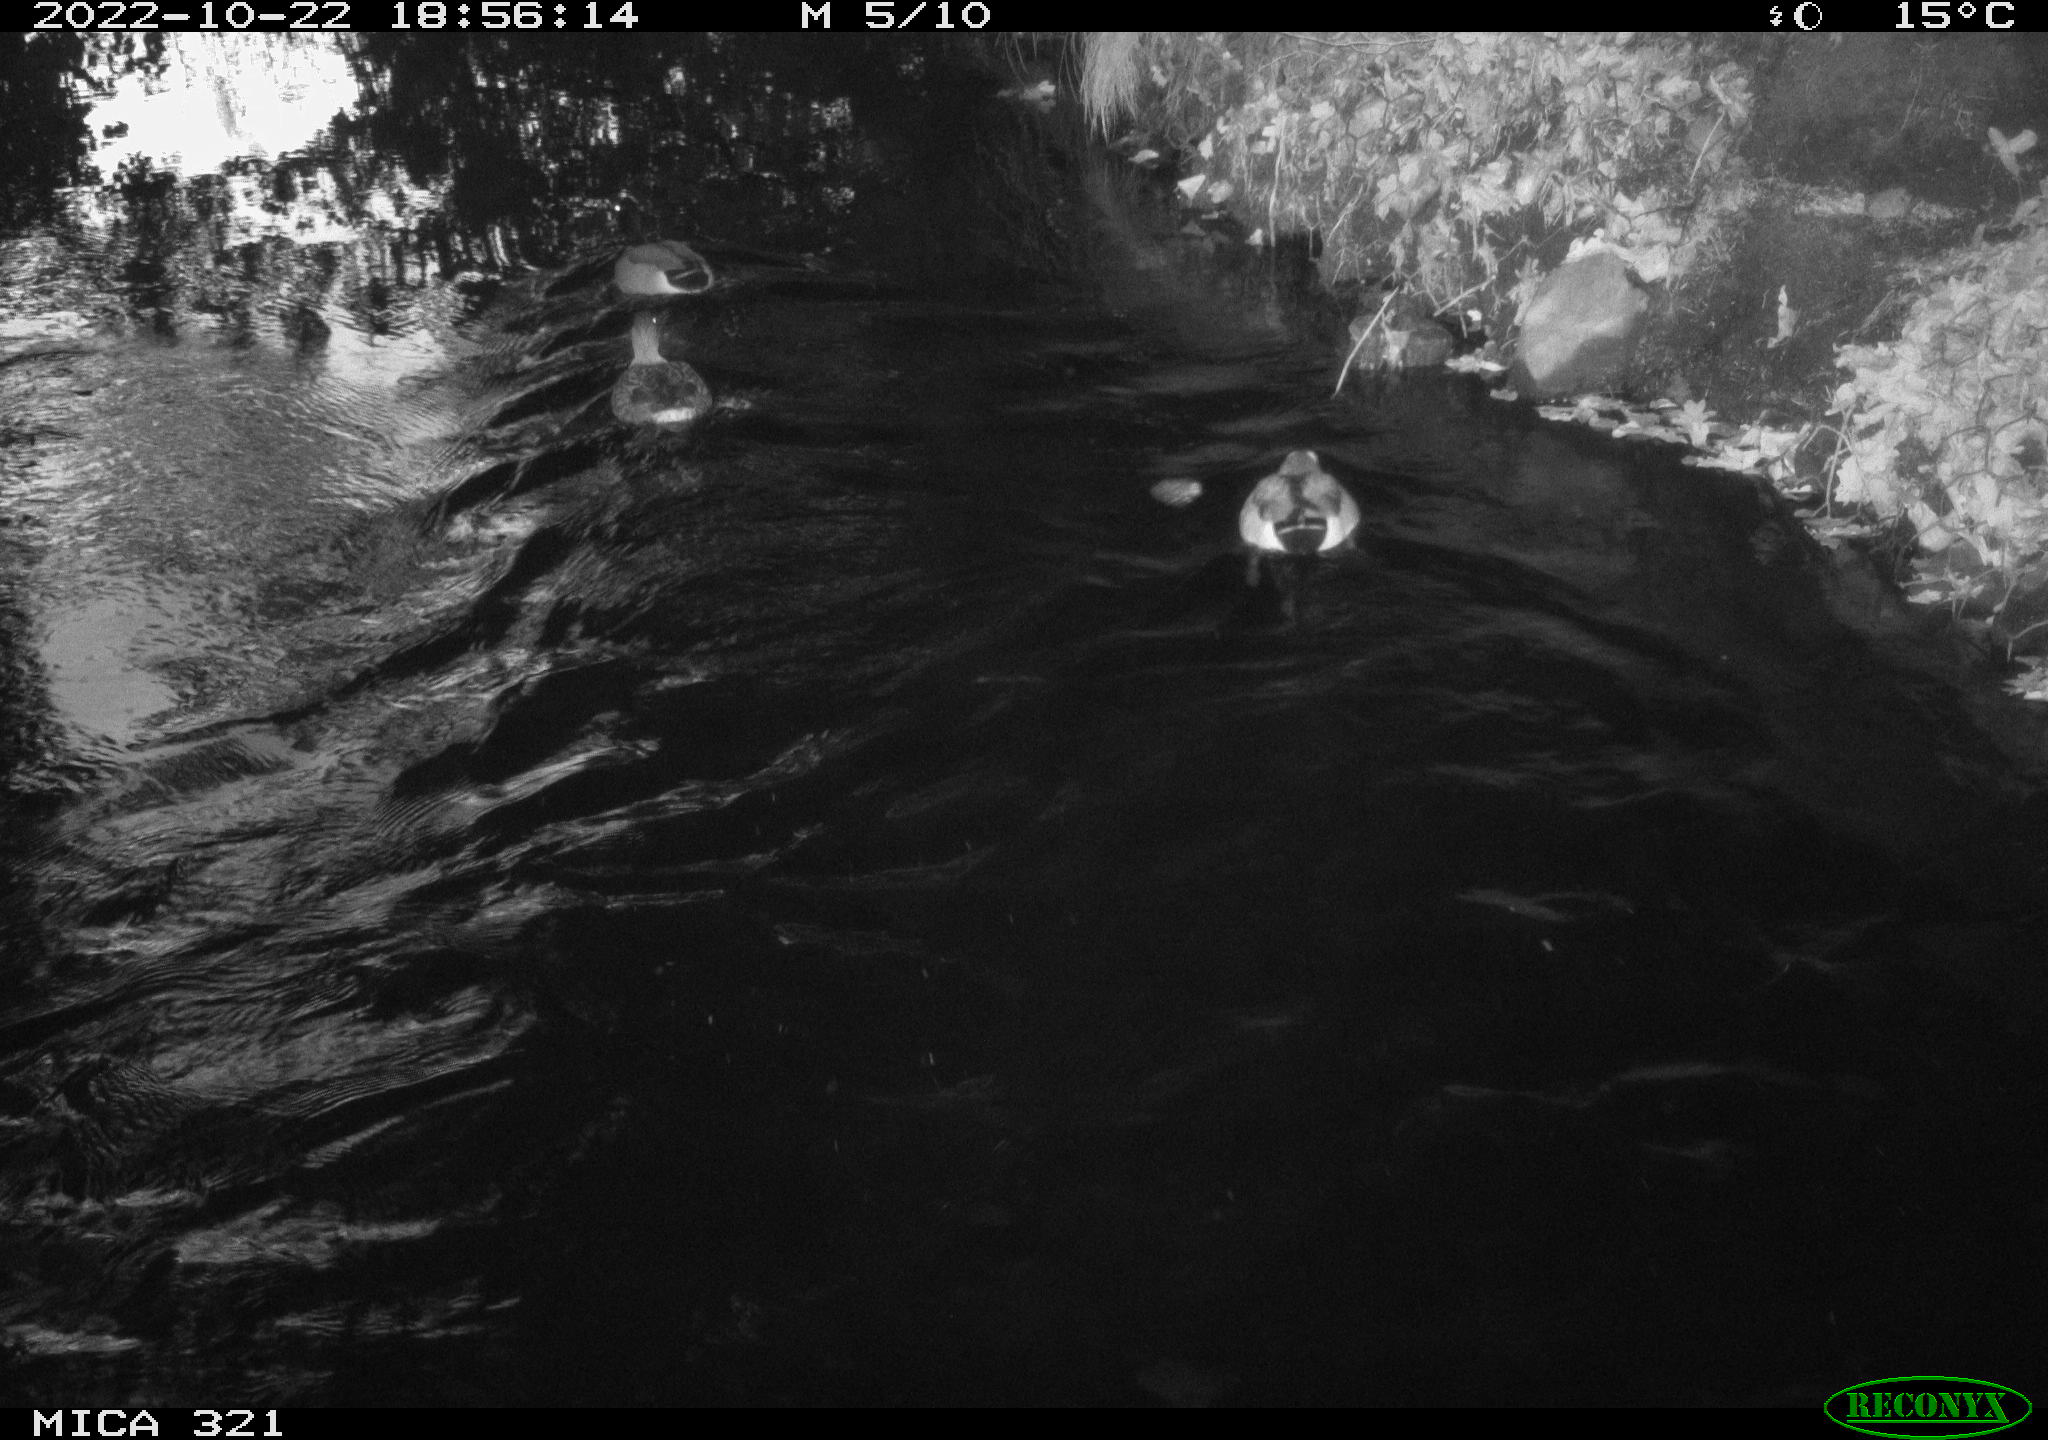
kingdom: Animalia
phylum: Chordata
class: Aves
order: Anseriformes
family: Anatidae
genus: Anas
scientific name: Anas
